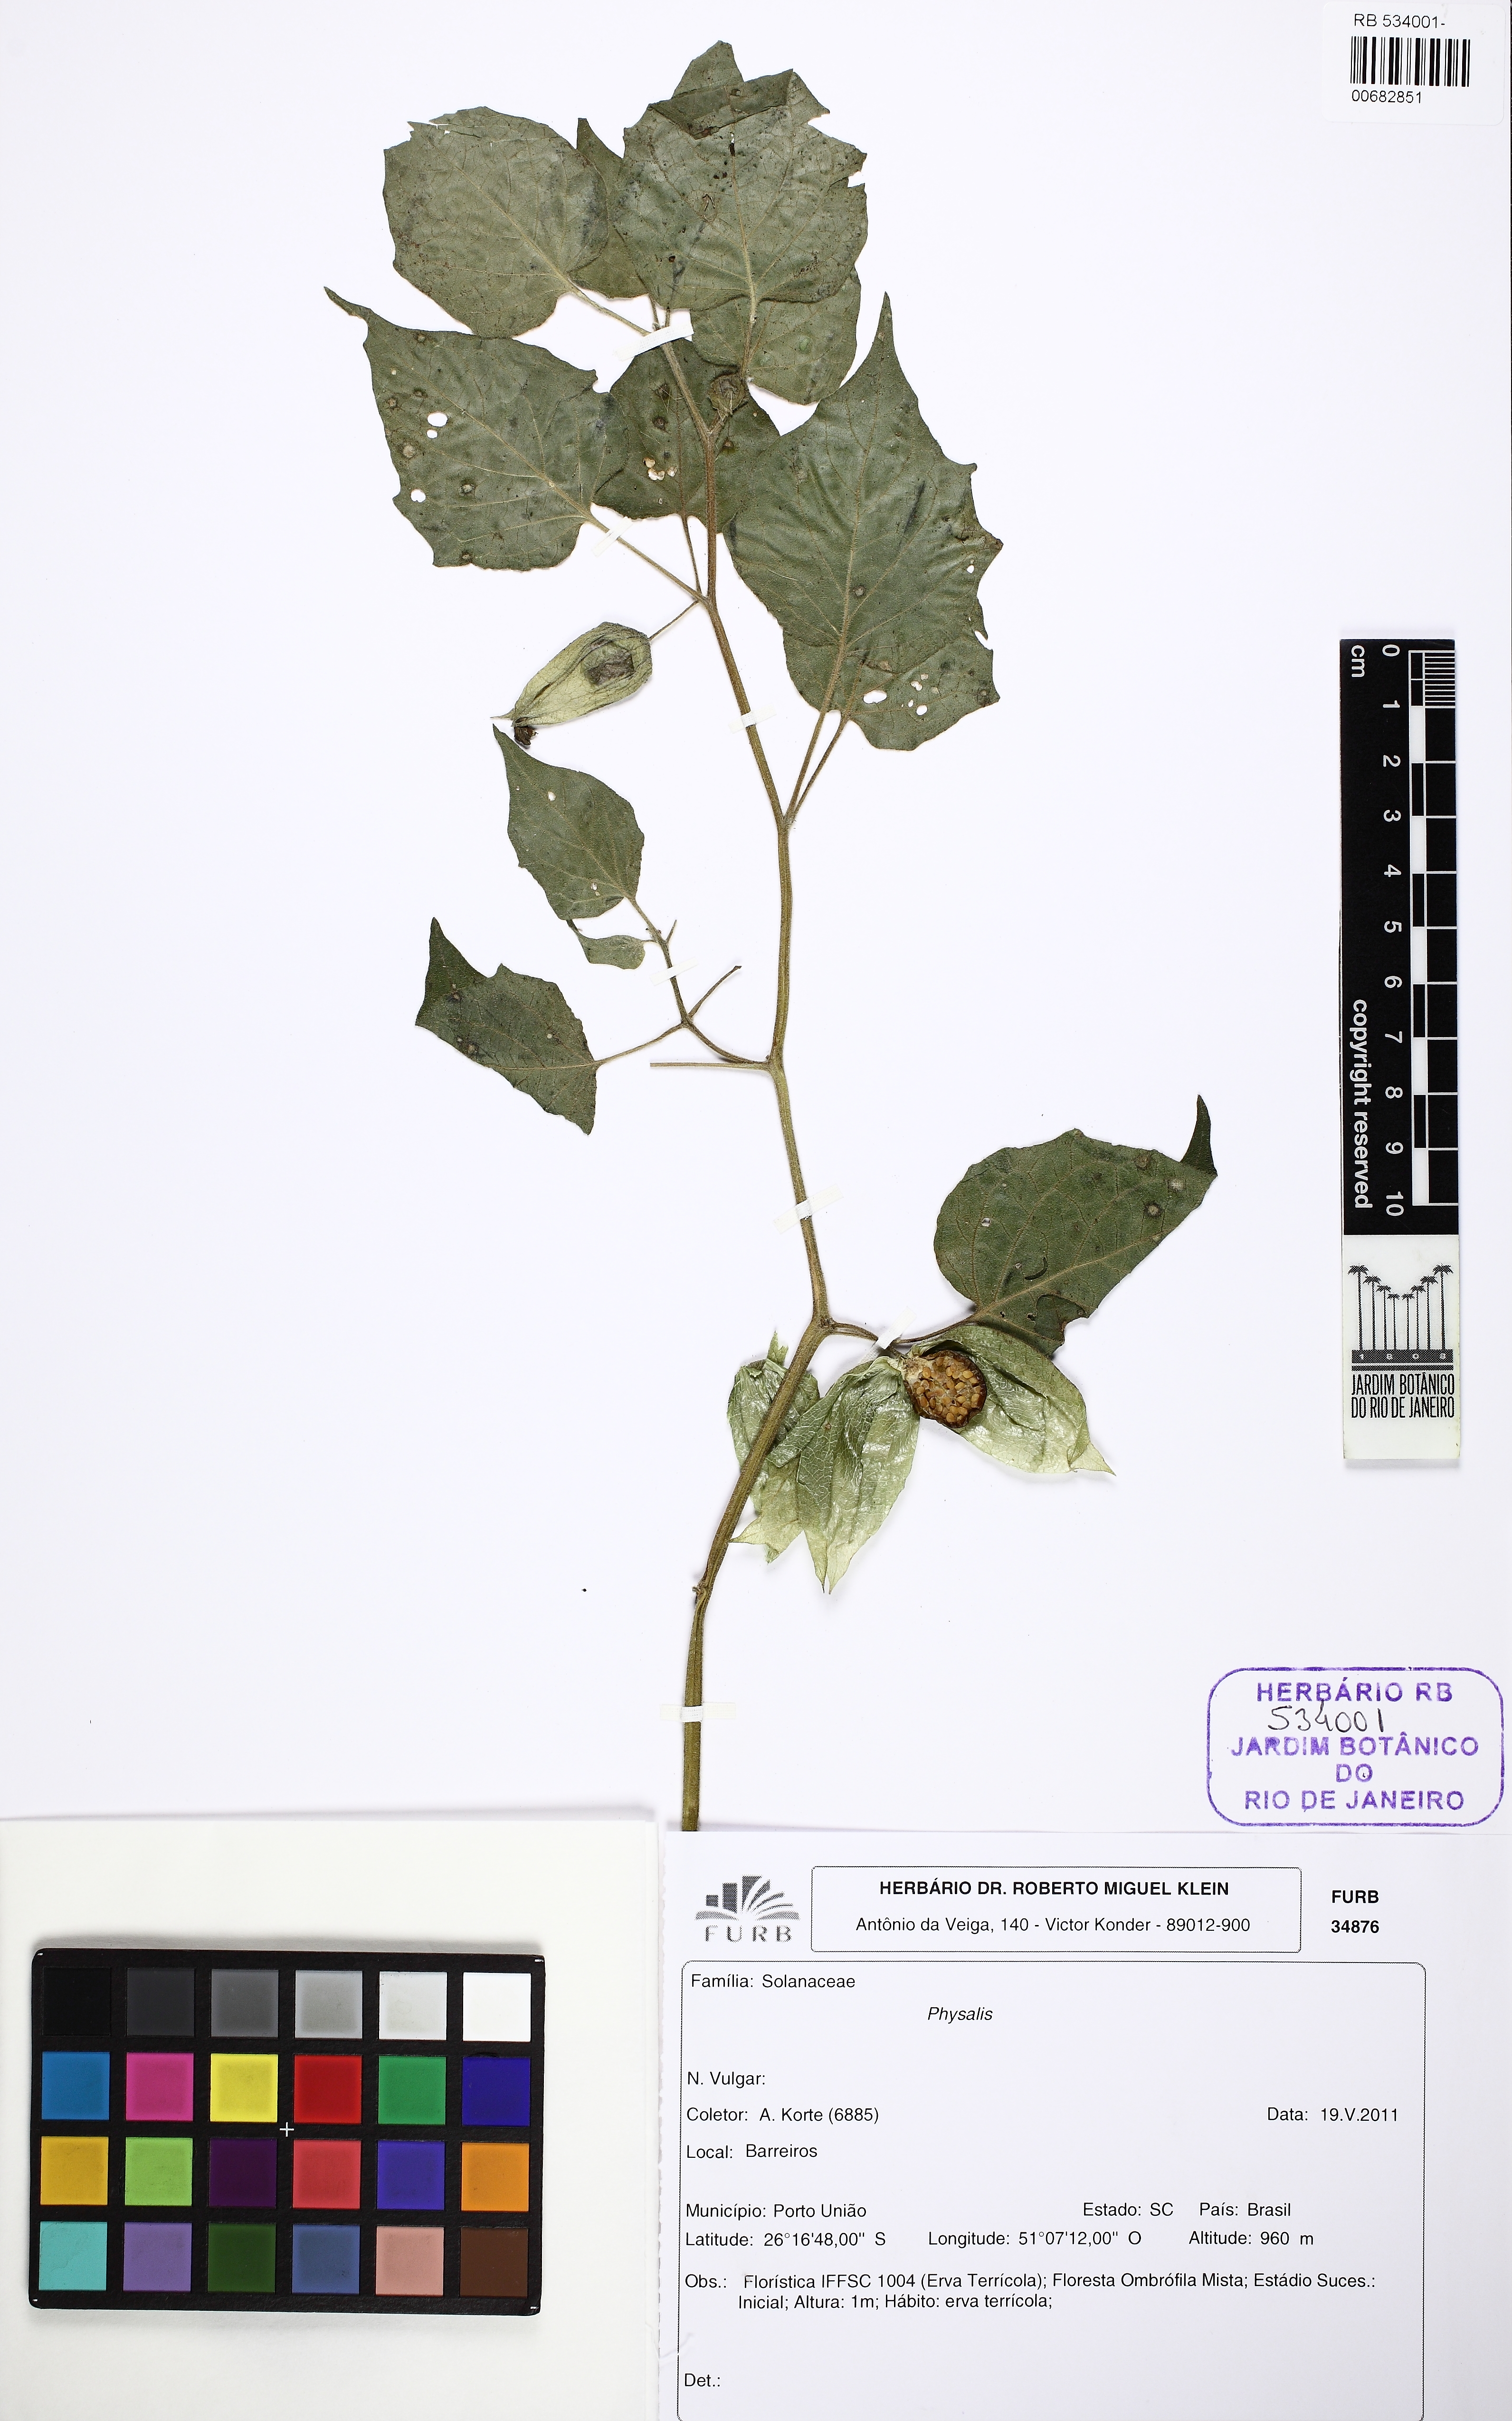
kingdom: Plantae
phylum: Tracheophyta
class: Magnoliopsida
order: Solanales
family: Solanaceae
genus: Physalis
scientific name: Physalis
